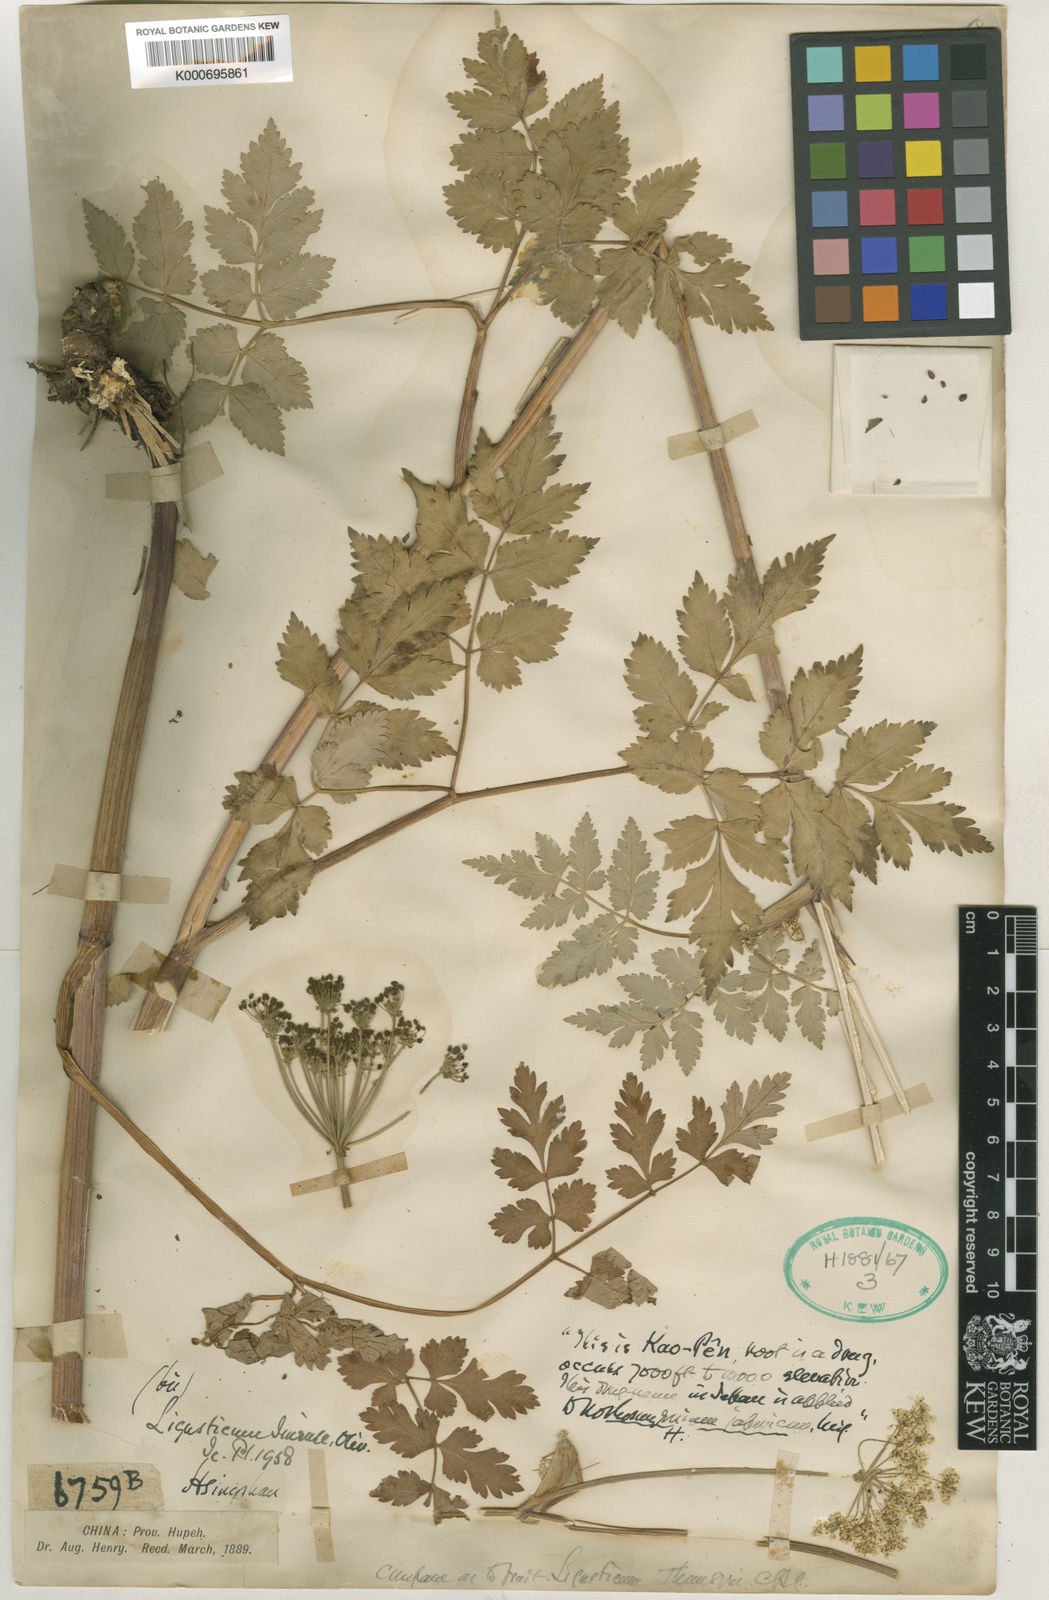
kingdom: Plantae
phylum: Tracheophyta
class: Magnoliopsida
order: Apiales
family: Apiaceae
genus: Conioselinum
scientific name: Conioselinum anthriscoides
